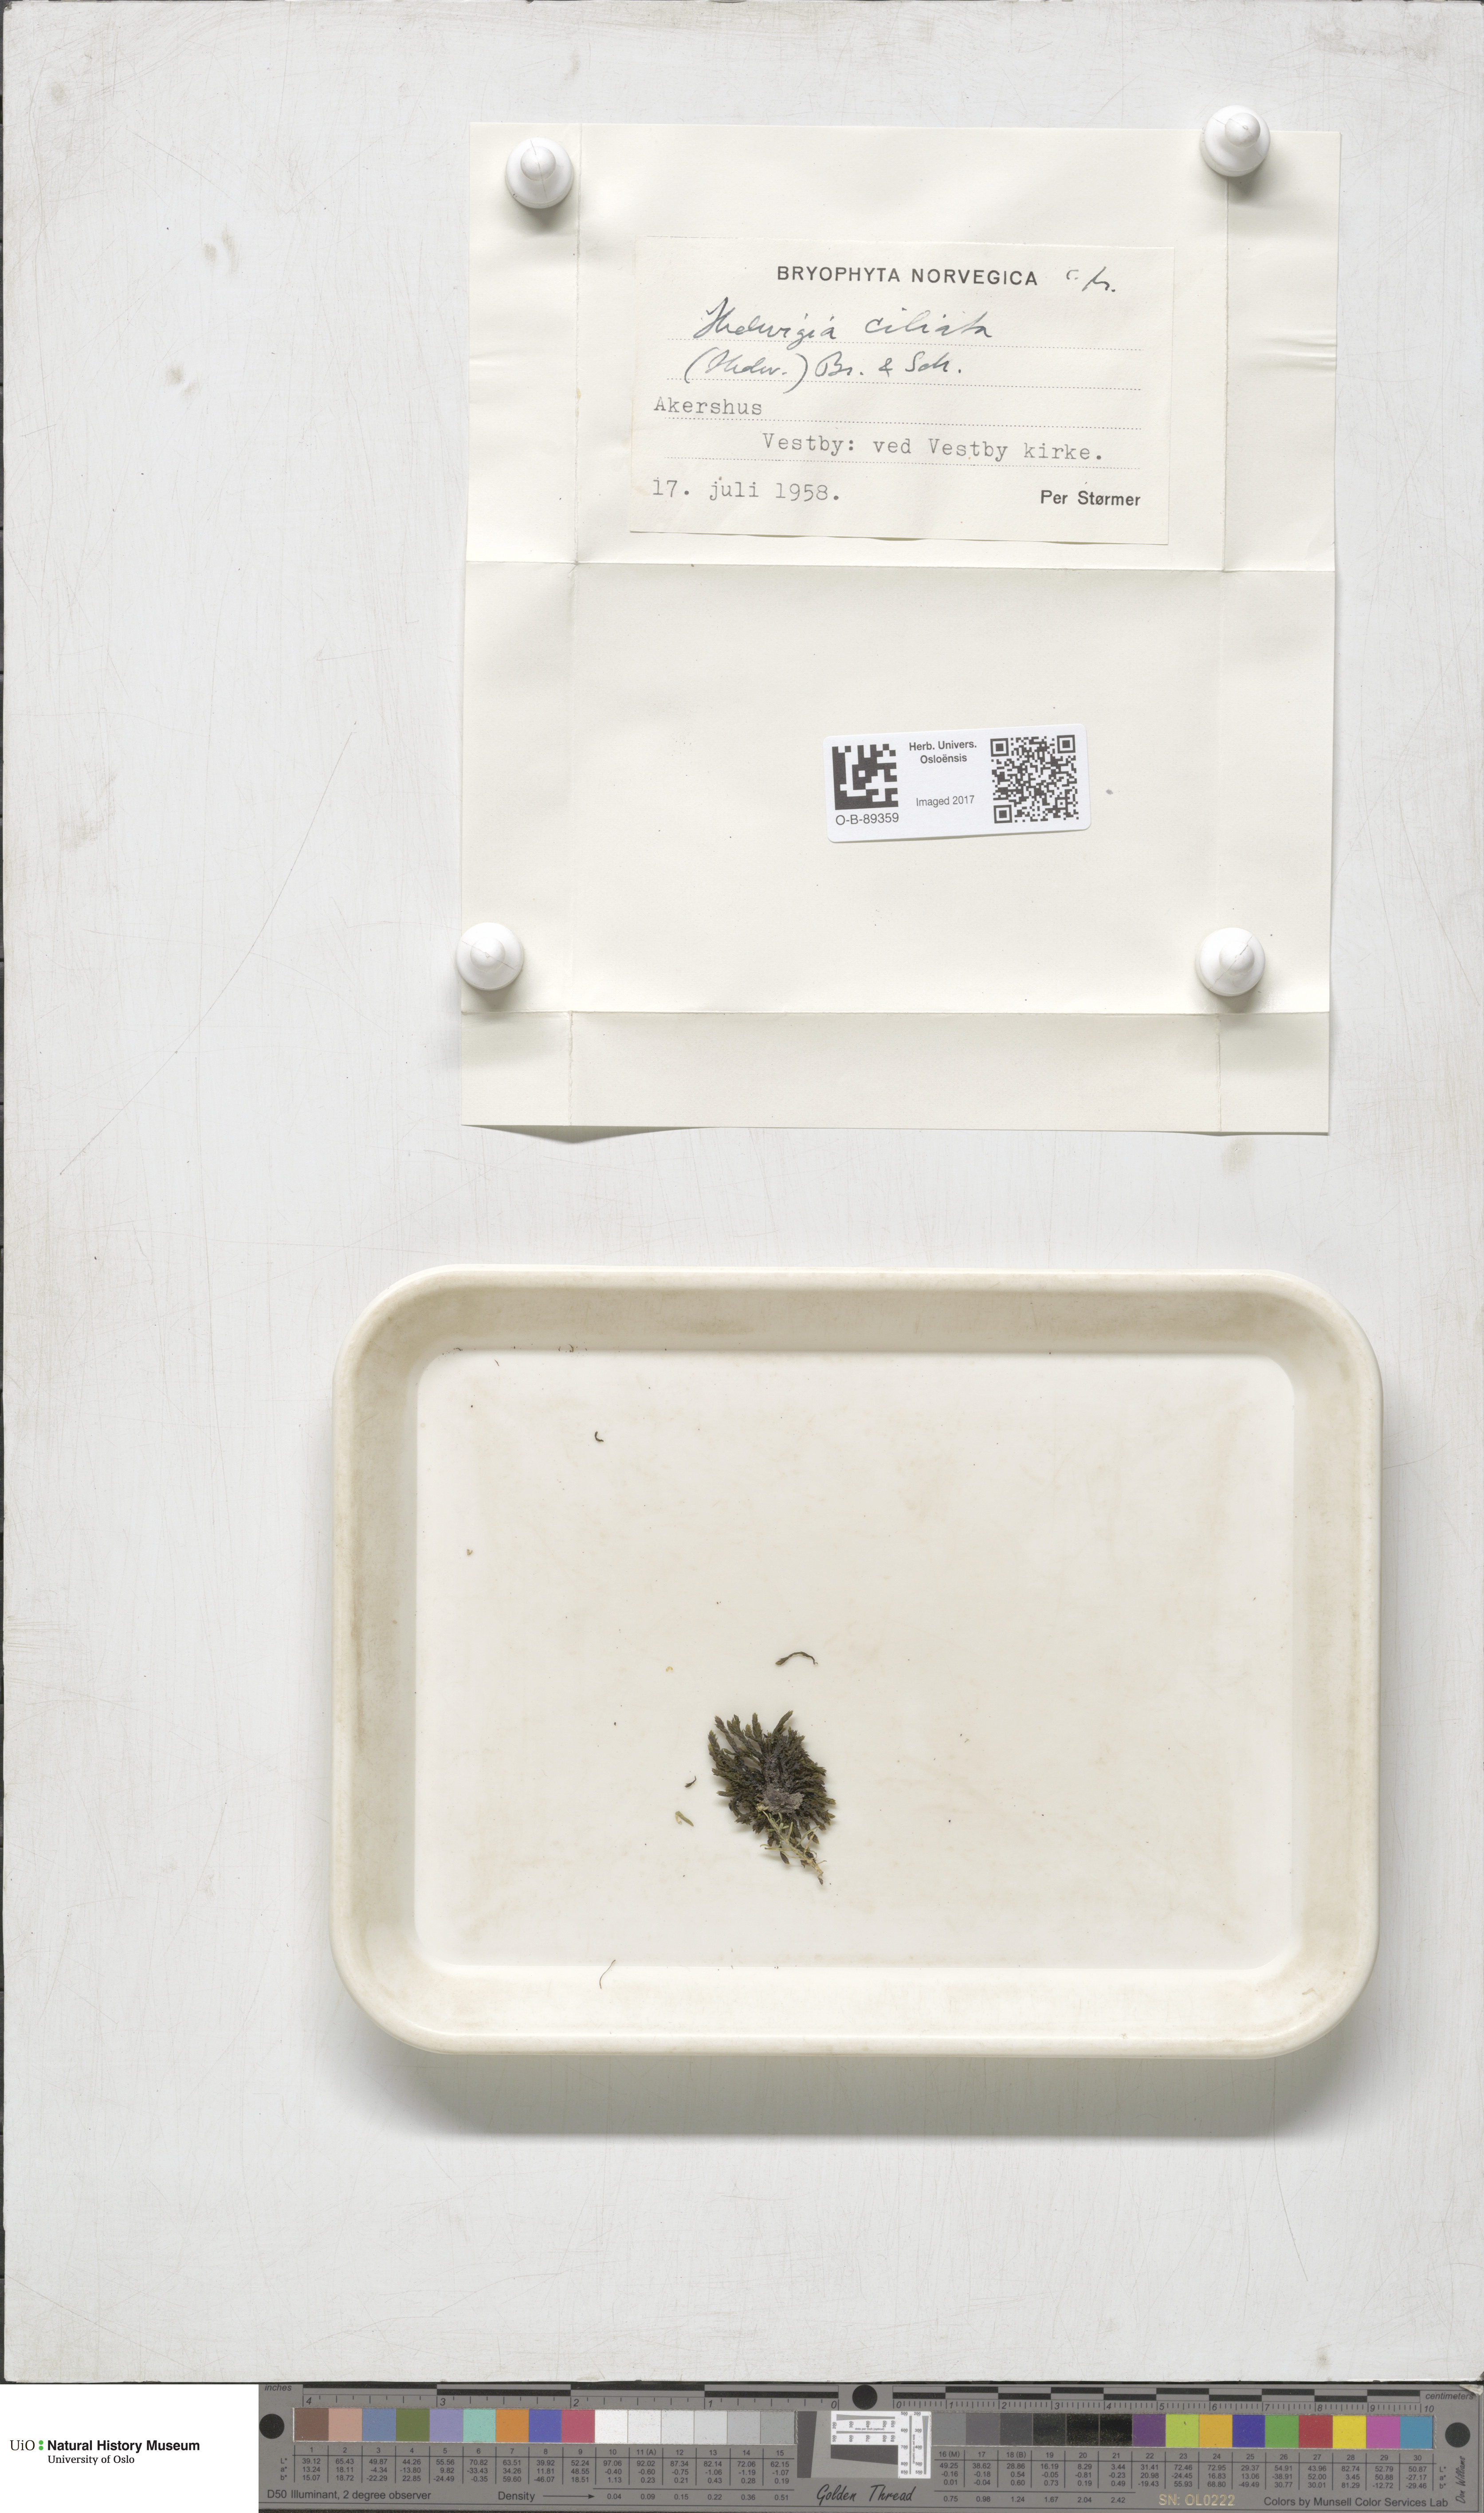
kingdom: Plantae
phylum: Bryophyta
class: Bryopsida
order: Hedwigiales
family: Hedwigiaceae
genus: Hedwigia
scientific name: Hedwigia ciliata
